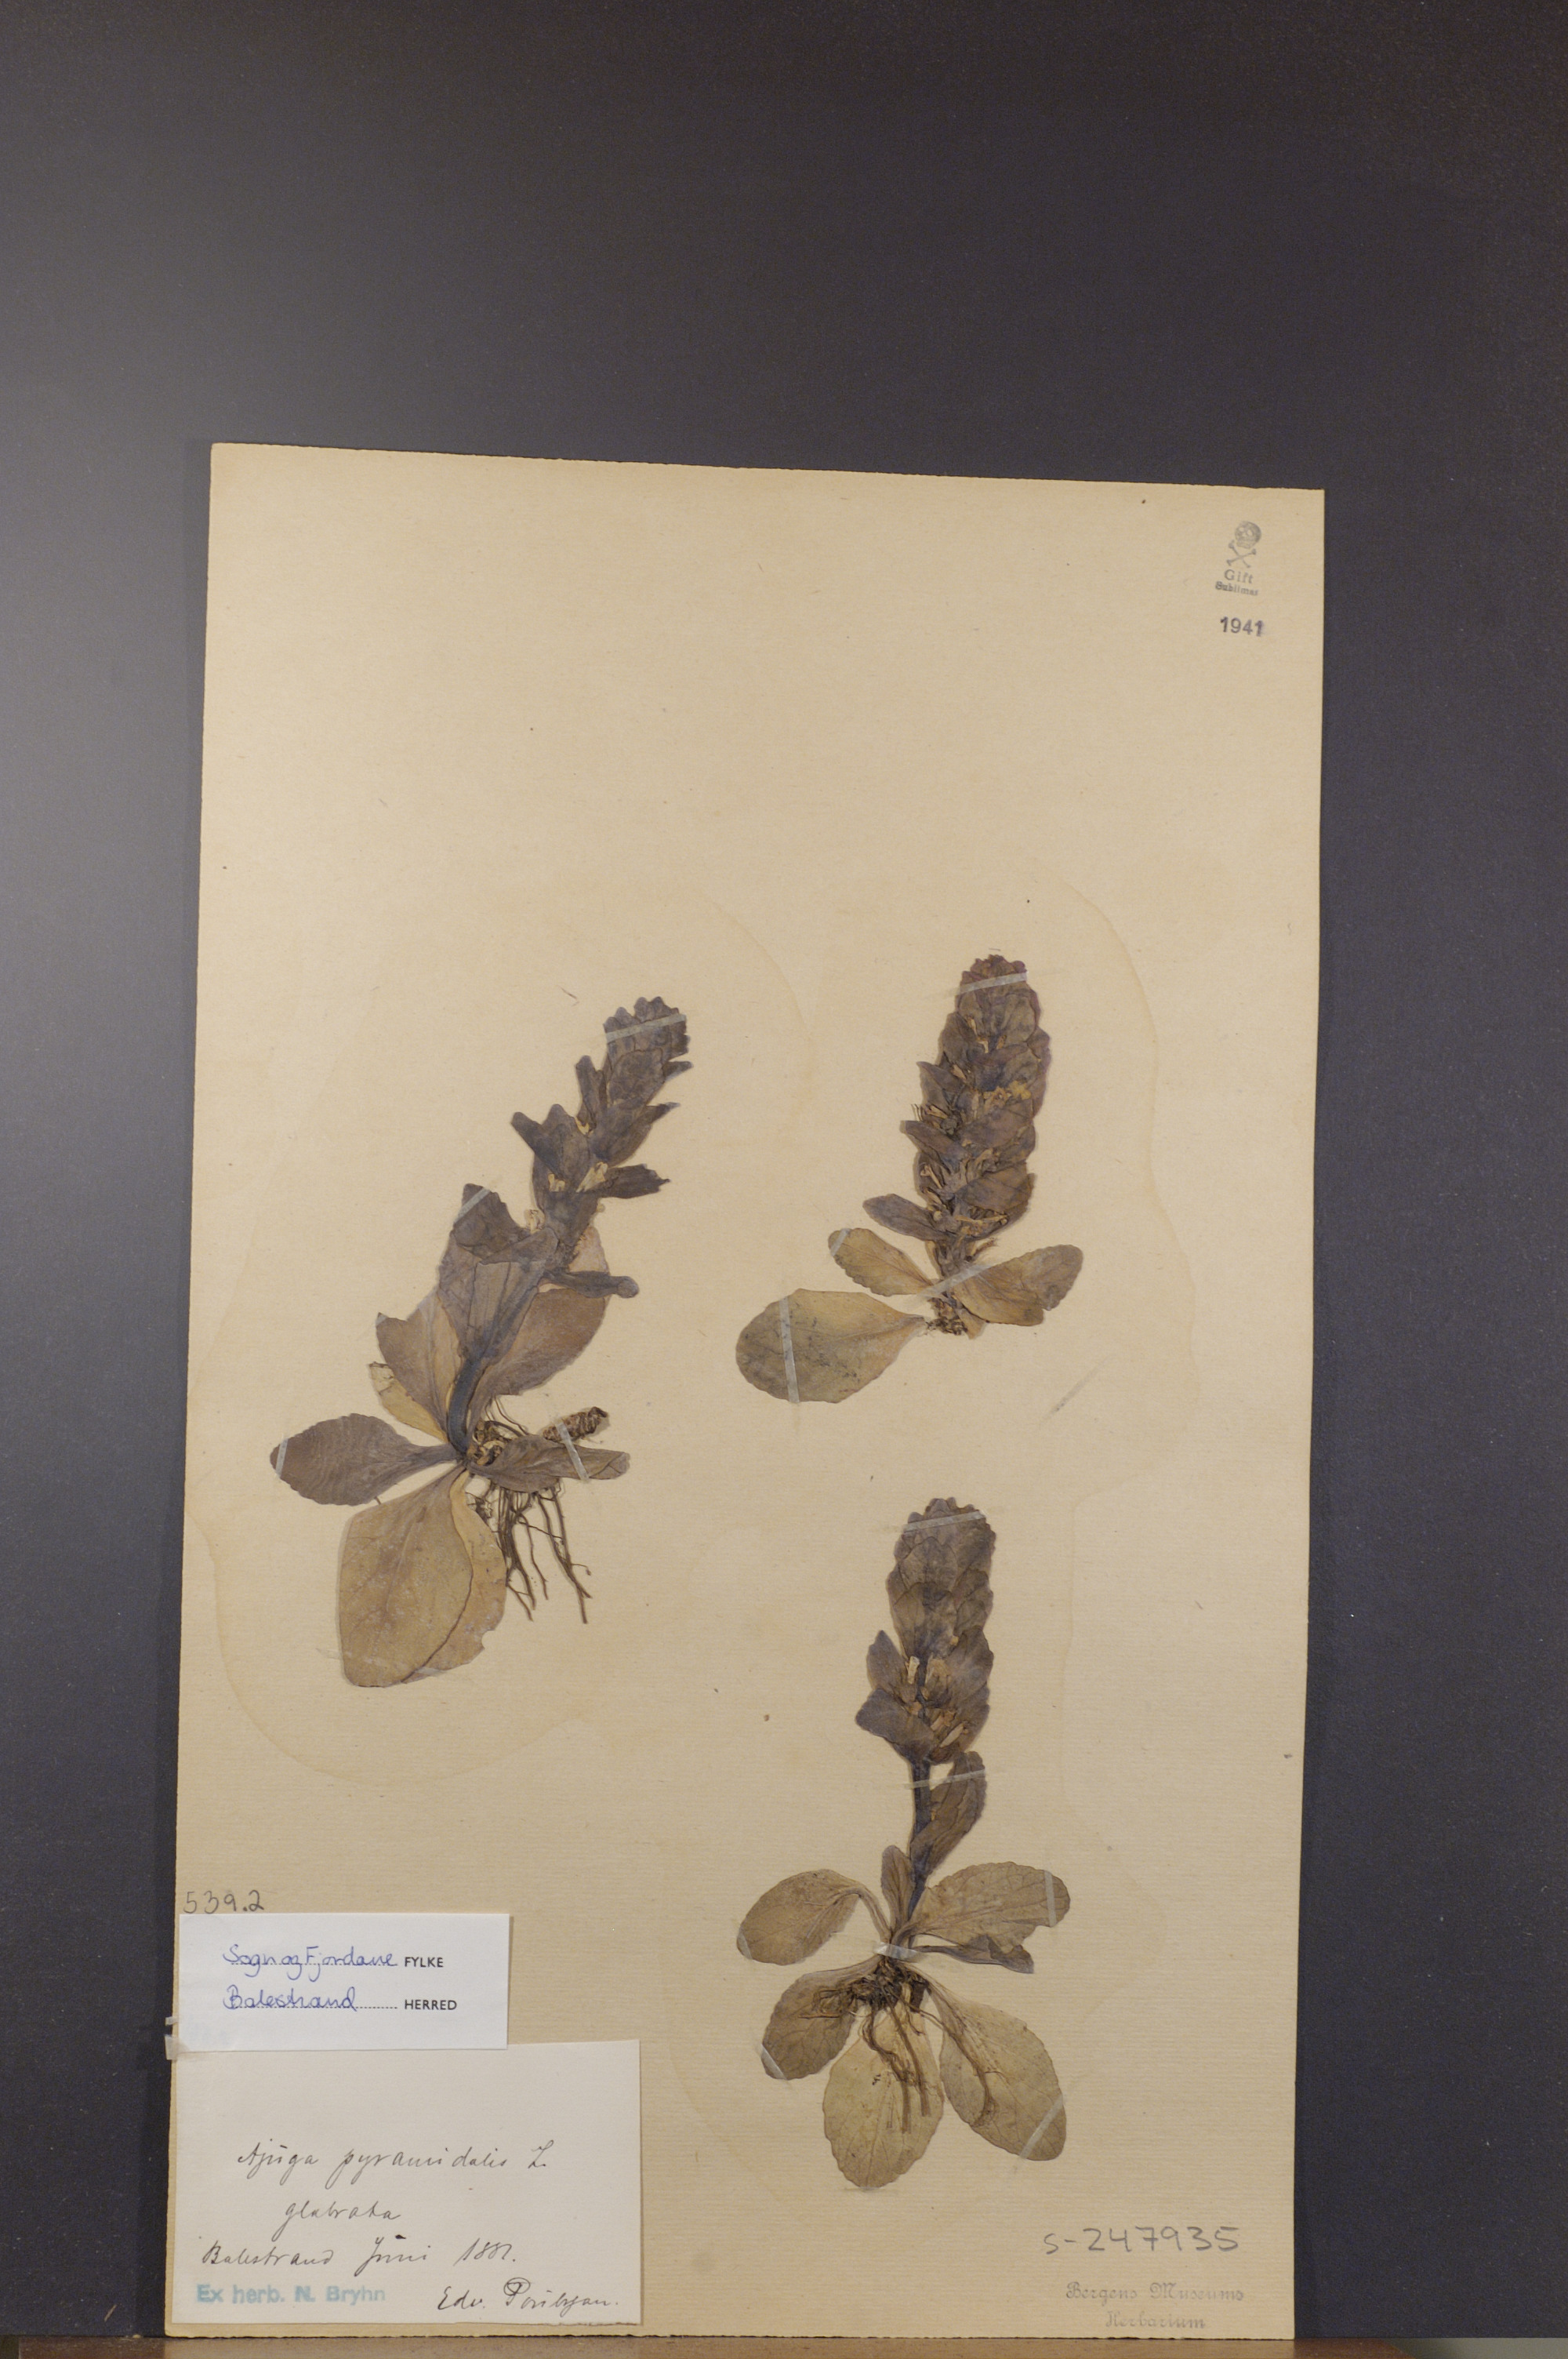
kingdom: Plantae
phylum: Tracheophyta
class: Magnoliopsida
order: Lamiales
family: Lamiaceae
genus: Ajuga
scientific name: Ajuga pyramidalis
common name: Pyramid bugle
